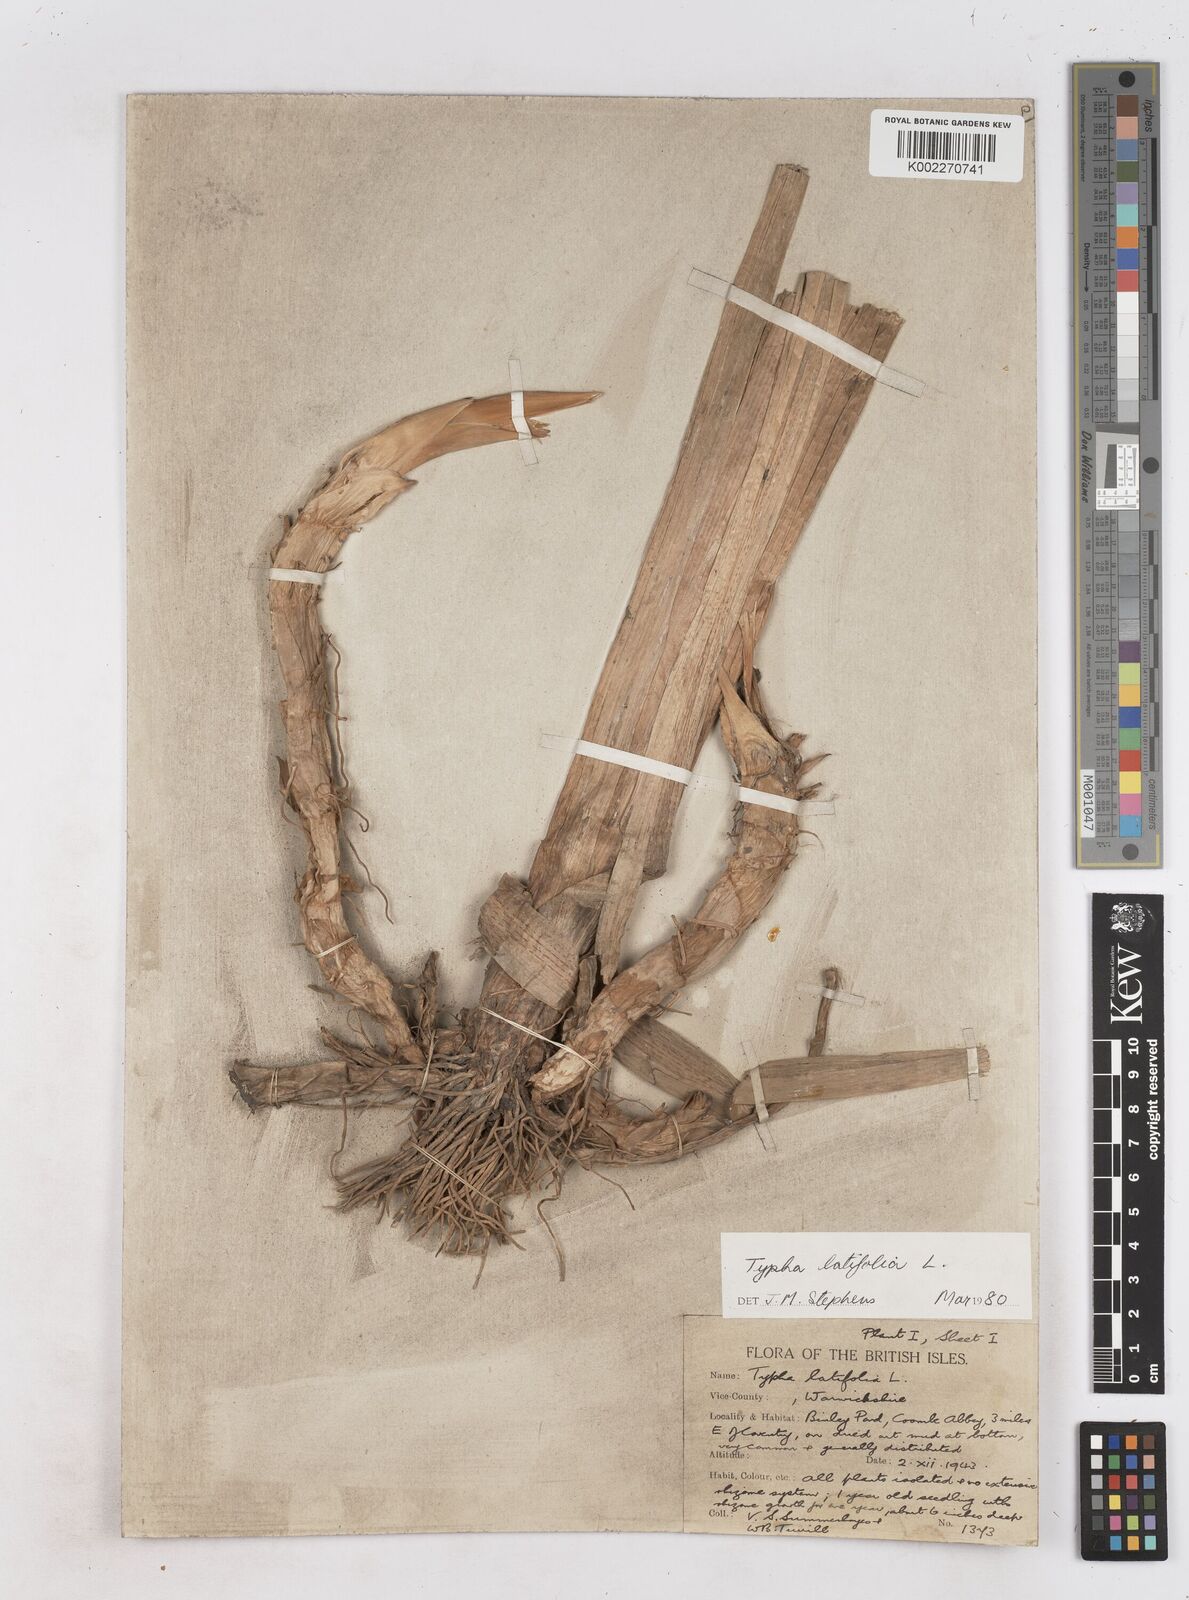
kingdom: Plantae
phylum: Tracheophyta
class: Liliopsida
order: Poales
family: Typhaceae
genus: Typha
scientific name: Typha latifolia
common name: Broadleaf cattail
